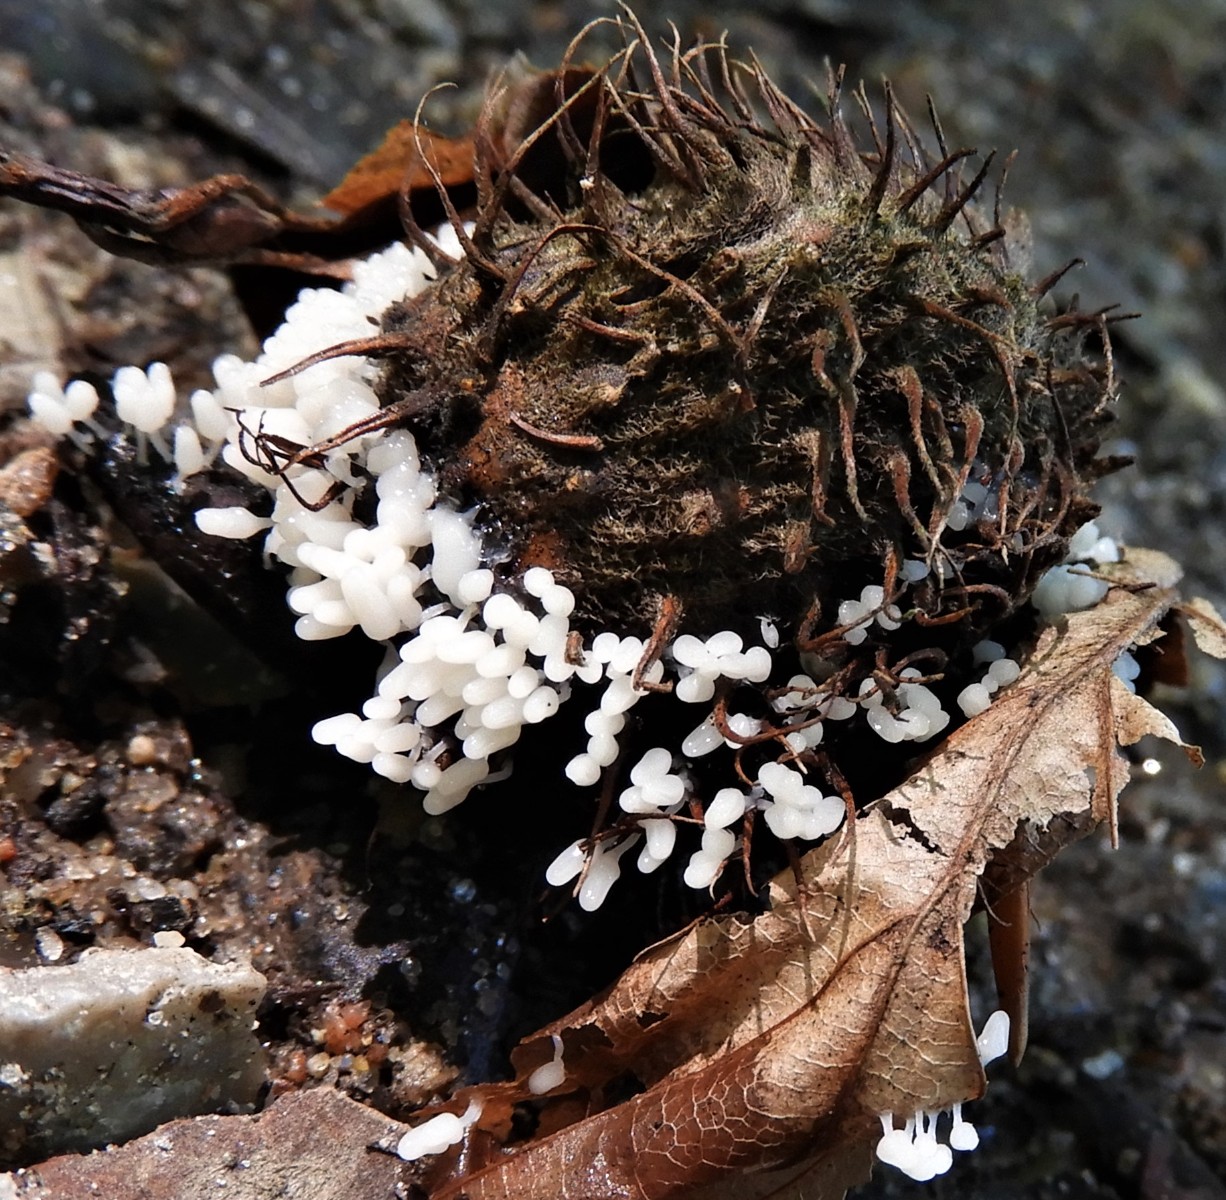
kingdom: Protozoa
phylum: Mycetozoa
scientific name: Mycetozoa
